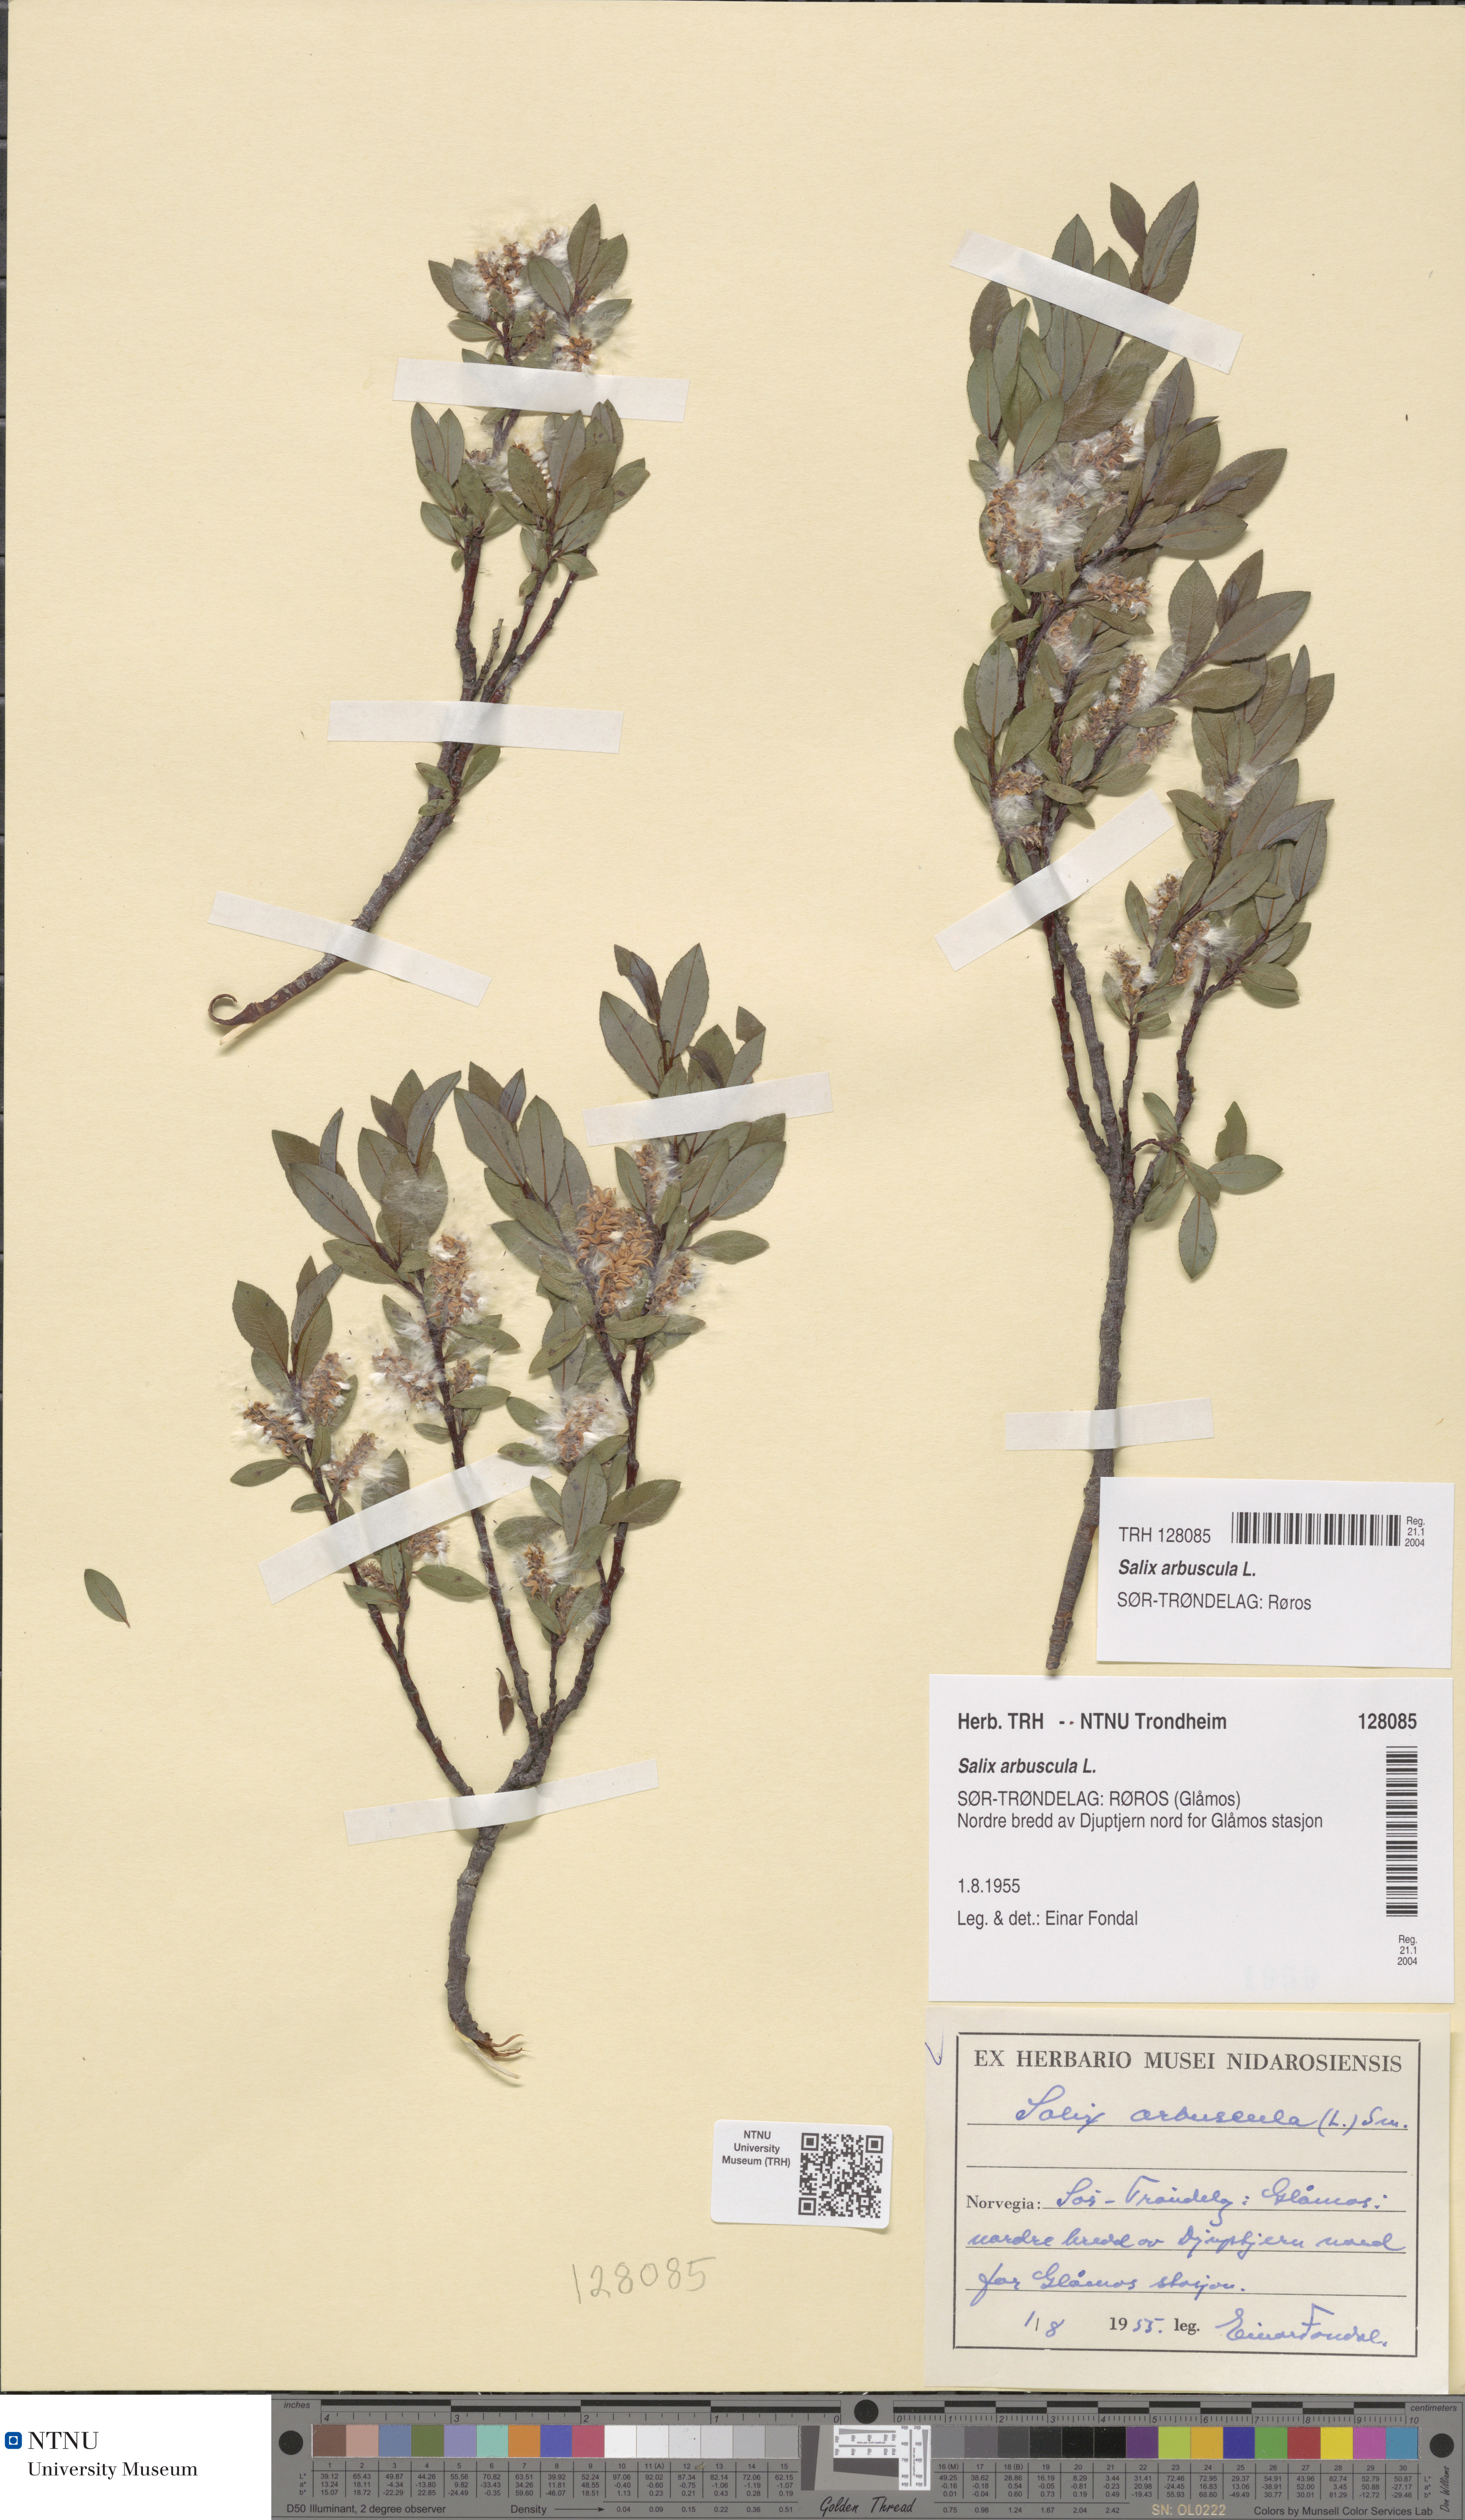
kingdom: Plantae
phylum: Tracheophyta
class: Magnoliopsida
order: Malpighiales
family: Salicaceae
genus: Salix
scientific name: Salix arbuscula
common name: Mountain willow
